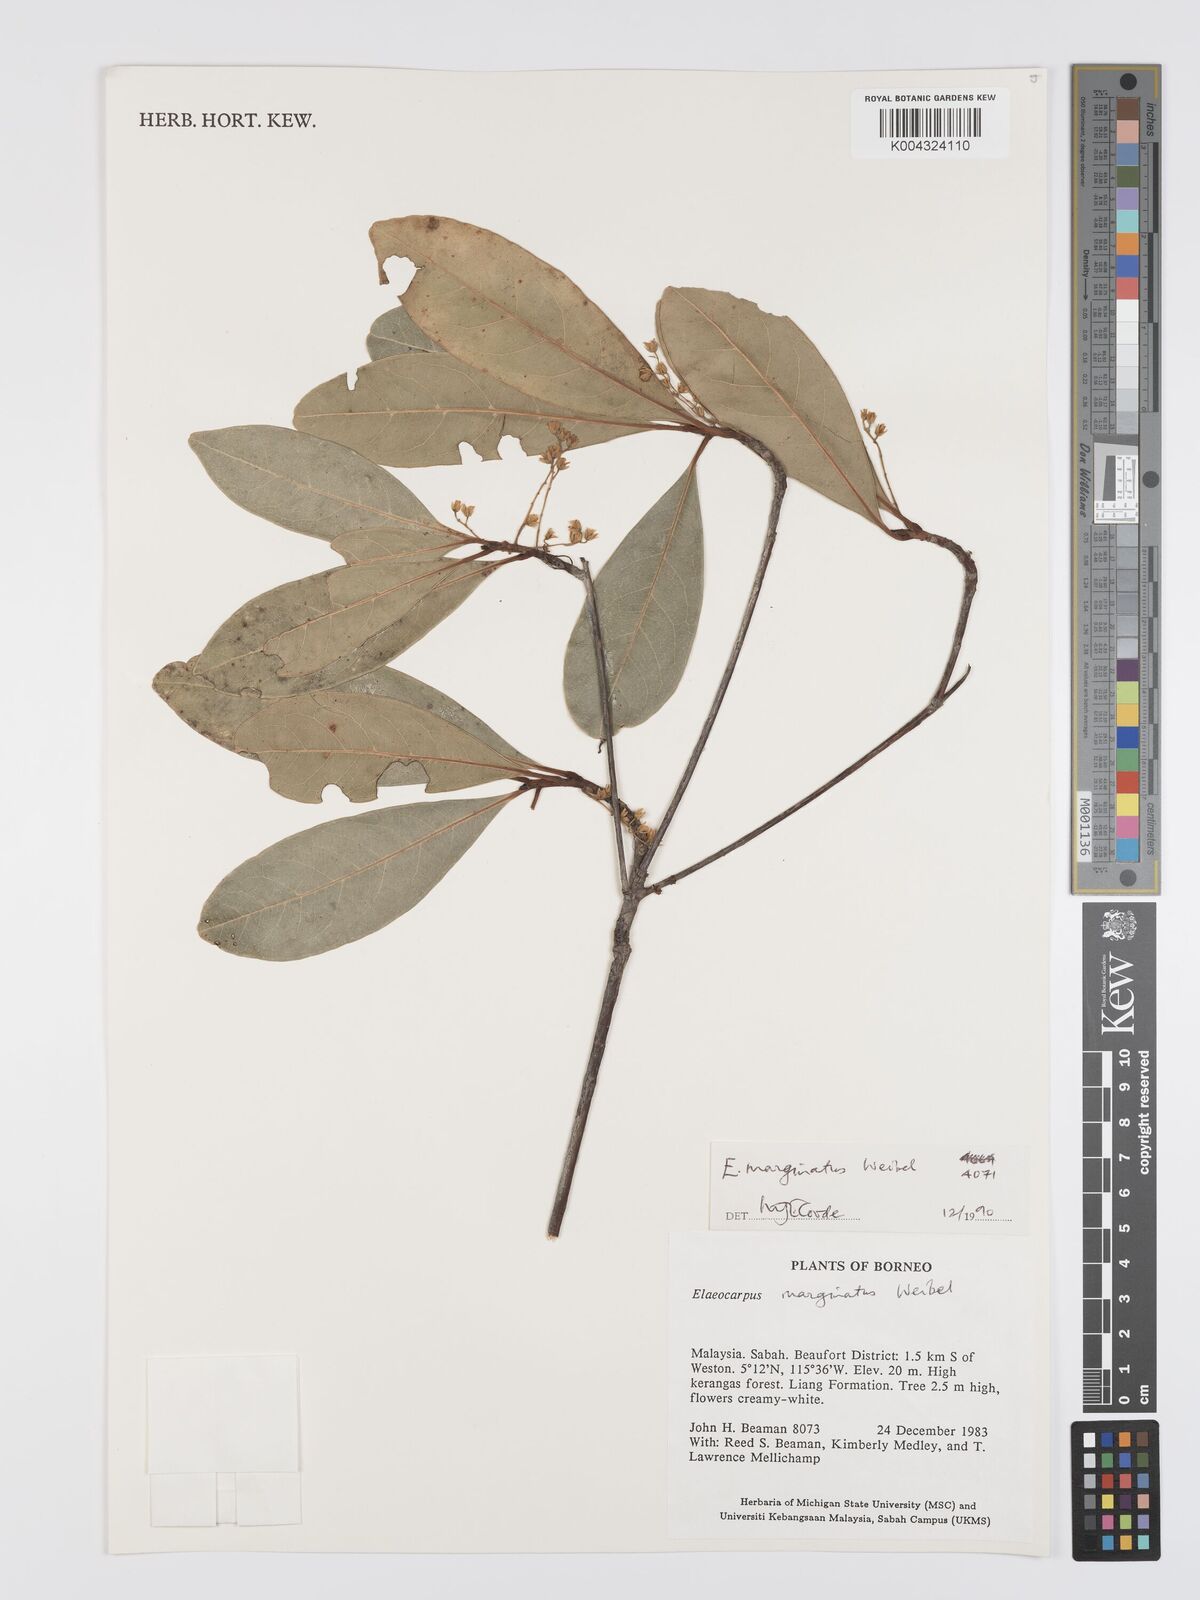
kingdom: Plantae
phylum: Tracheophyta
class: Magnoliopsida
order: Oxalidales
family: Elaeocarpaceae
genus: Elaeocarpus
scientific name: Elaeocarpus marginatus
